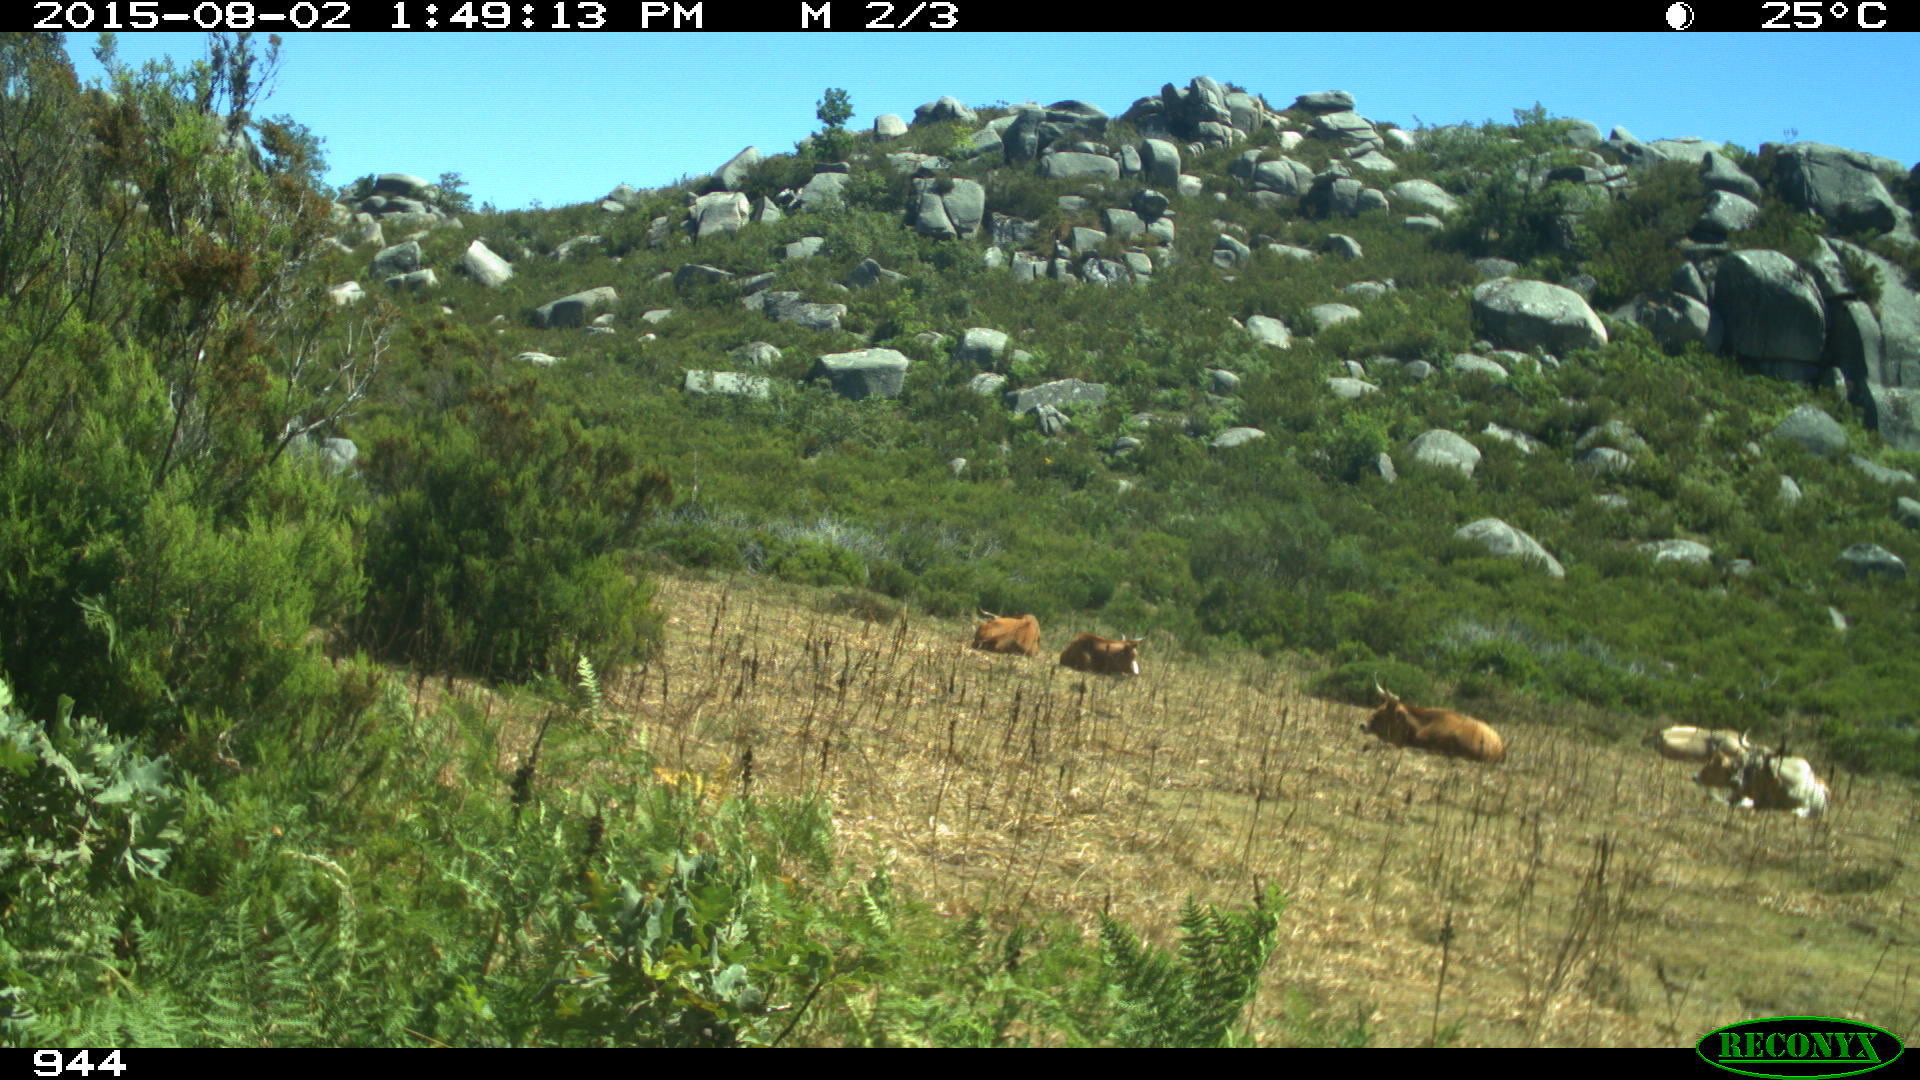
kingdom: Animalia
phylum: Chordata
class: Mammalia
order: Artiodactyla
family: Bovidae
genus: Bos
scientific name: Bos taurus
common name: Domesticated cattle
